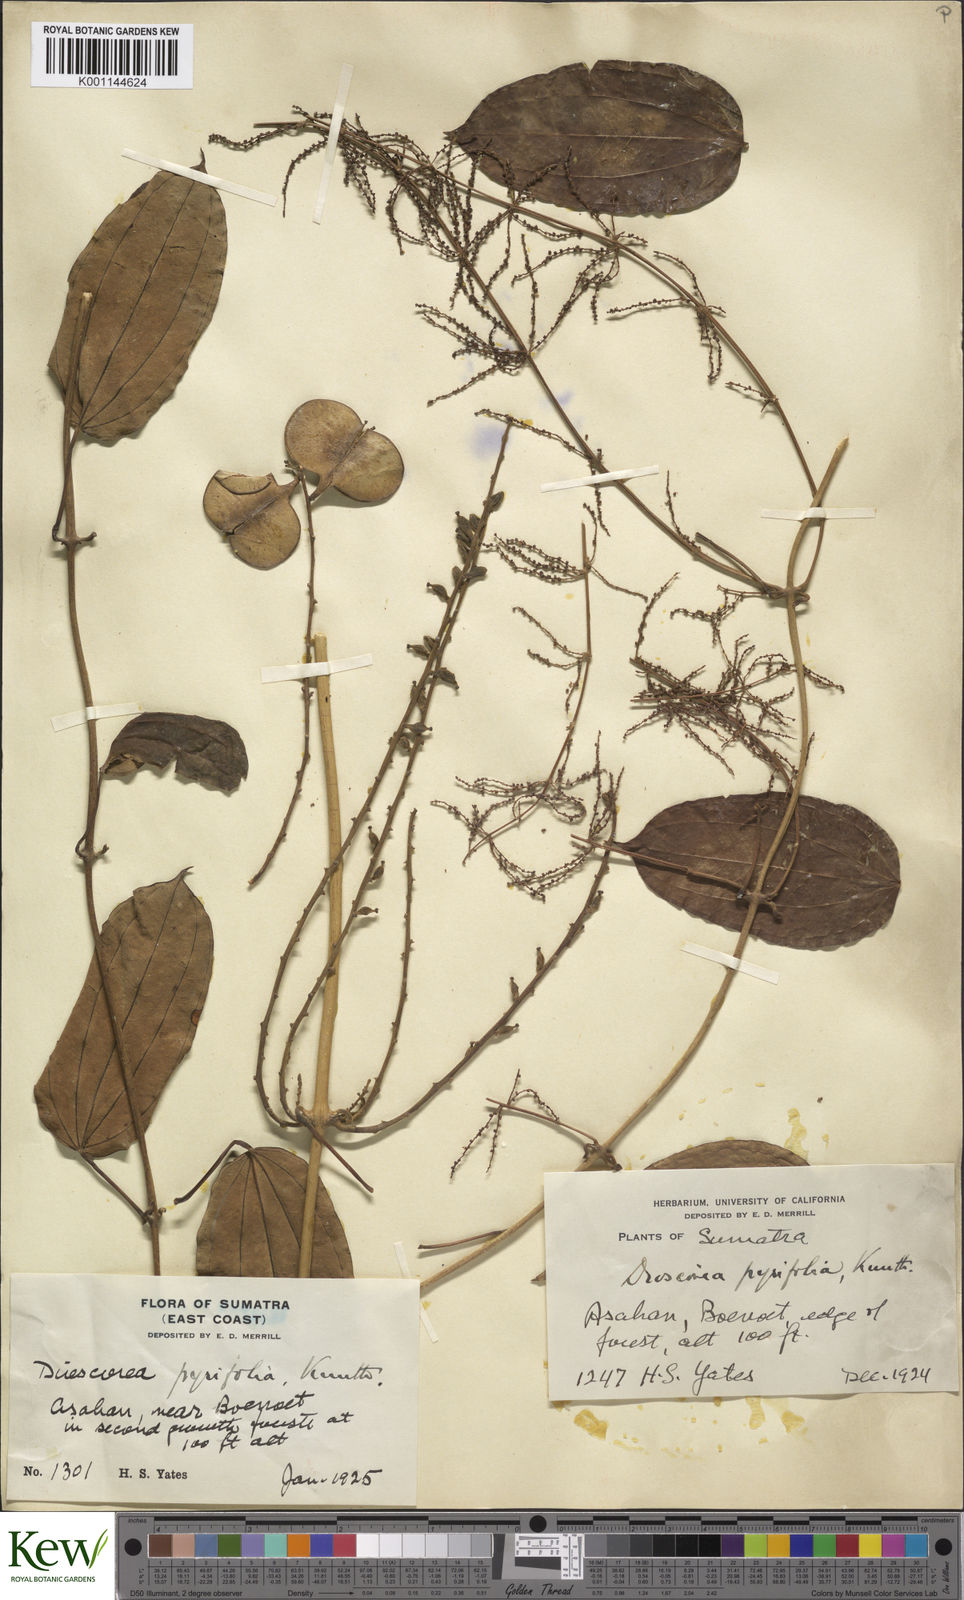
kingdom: Plantae
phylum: Tracheophyta
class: Liliopsida
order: Dioscoreales
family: Dioscoreaceae
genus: Dioscorea
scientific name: Dioscorea pyrifolia
